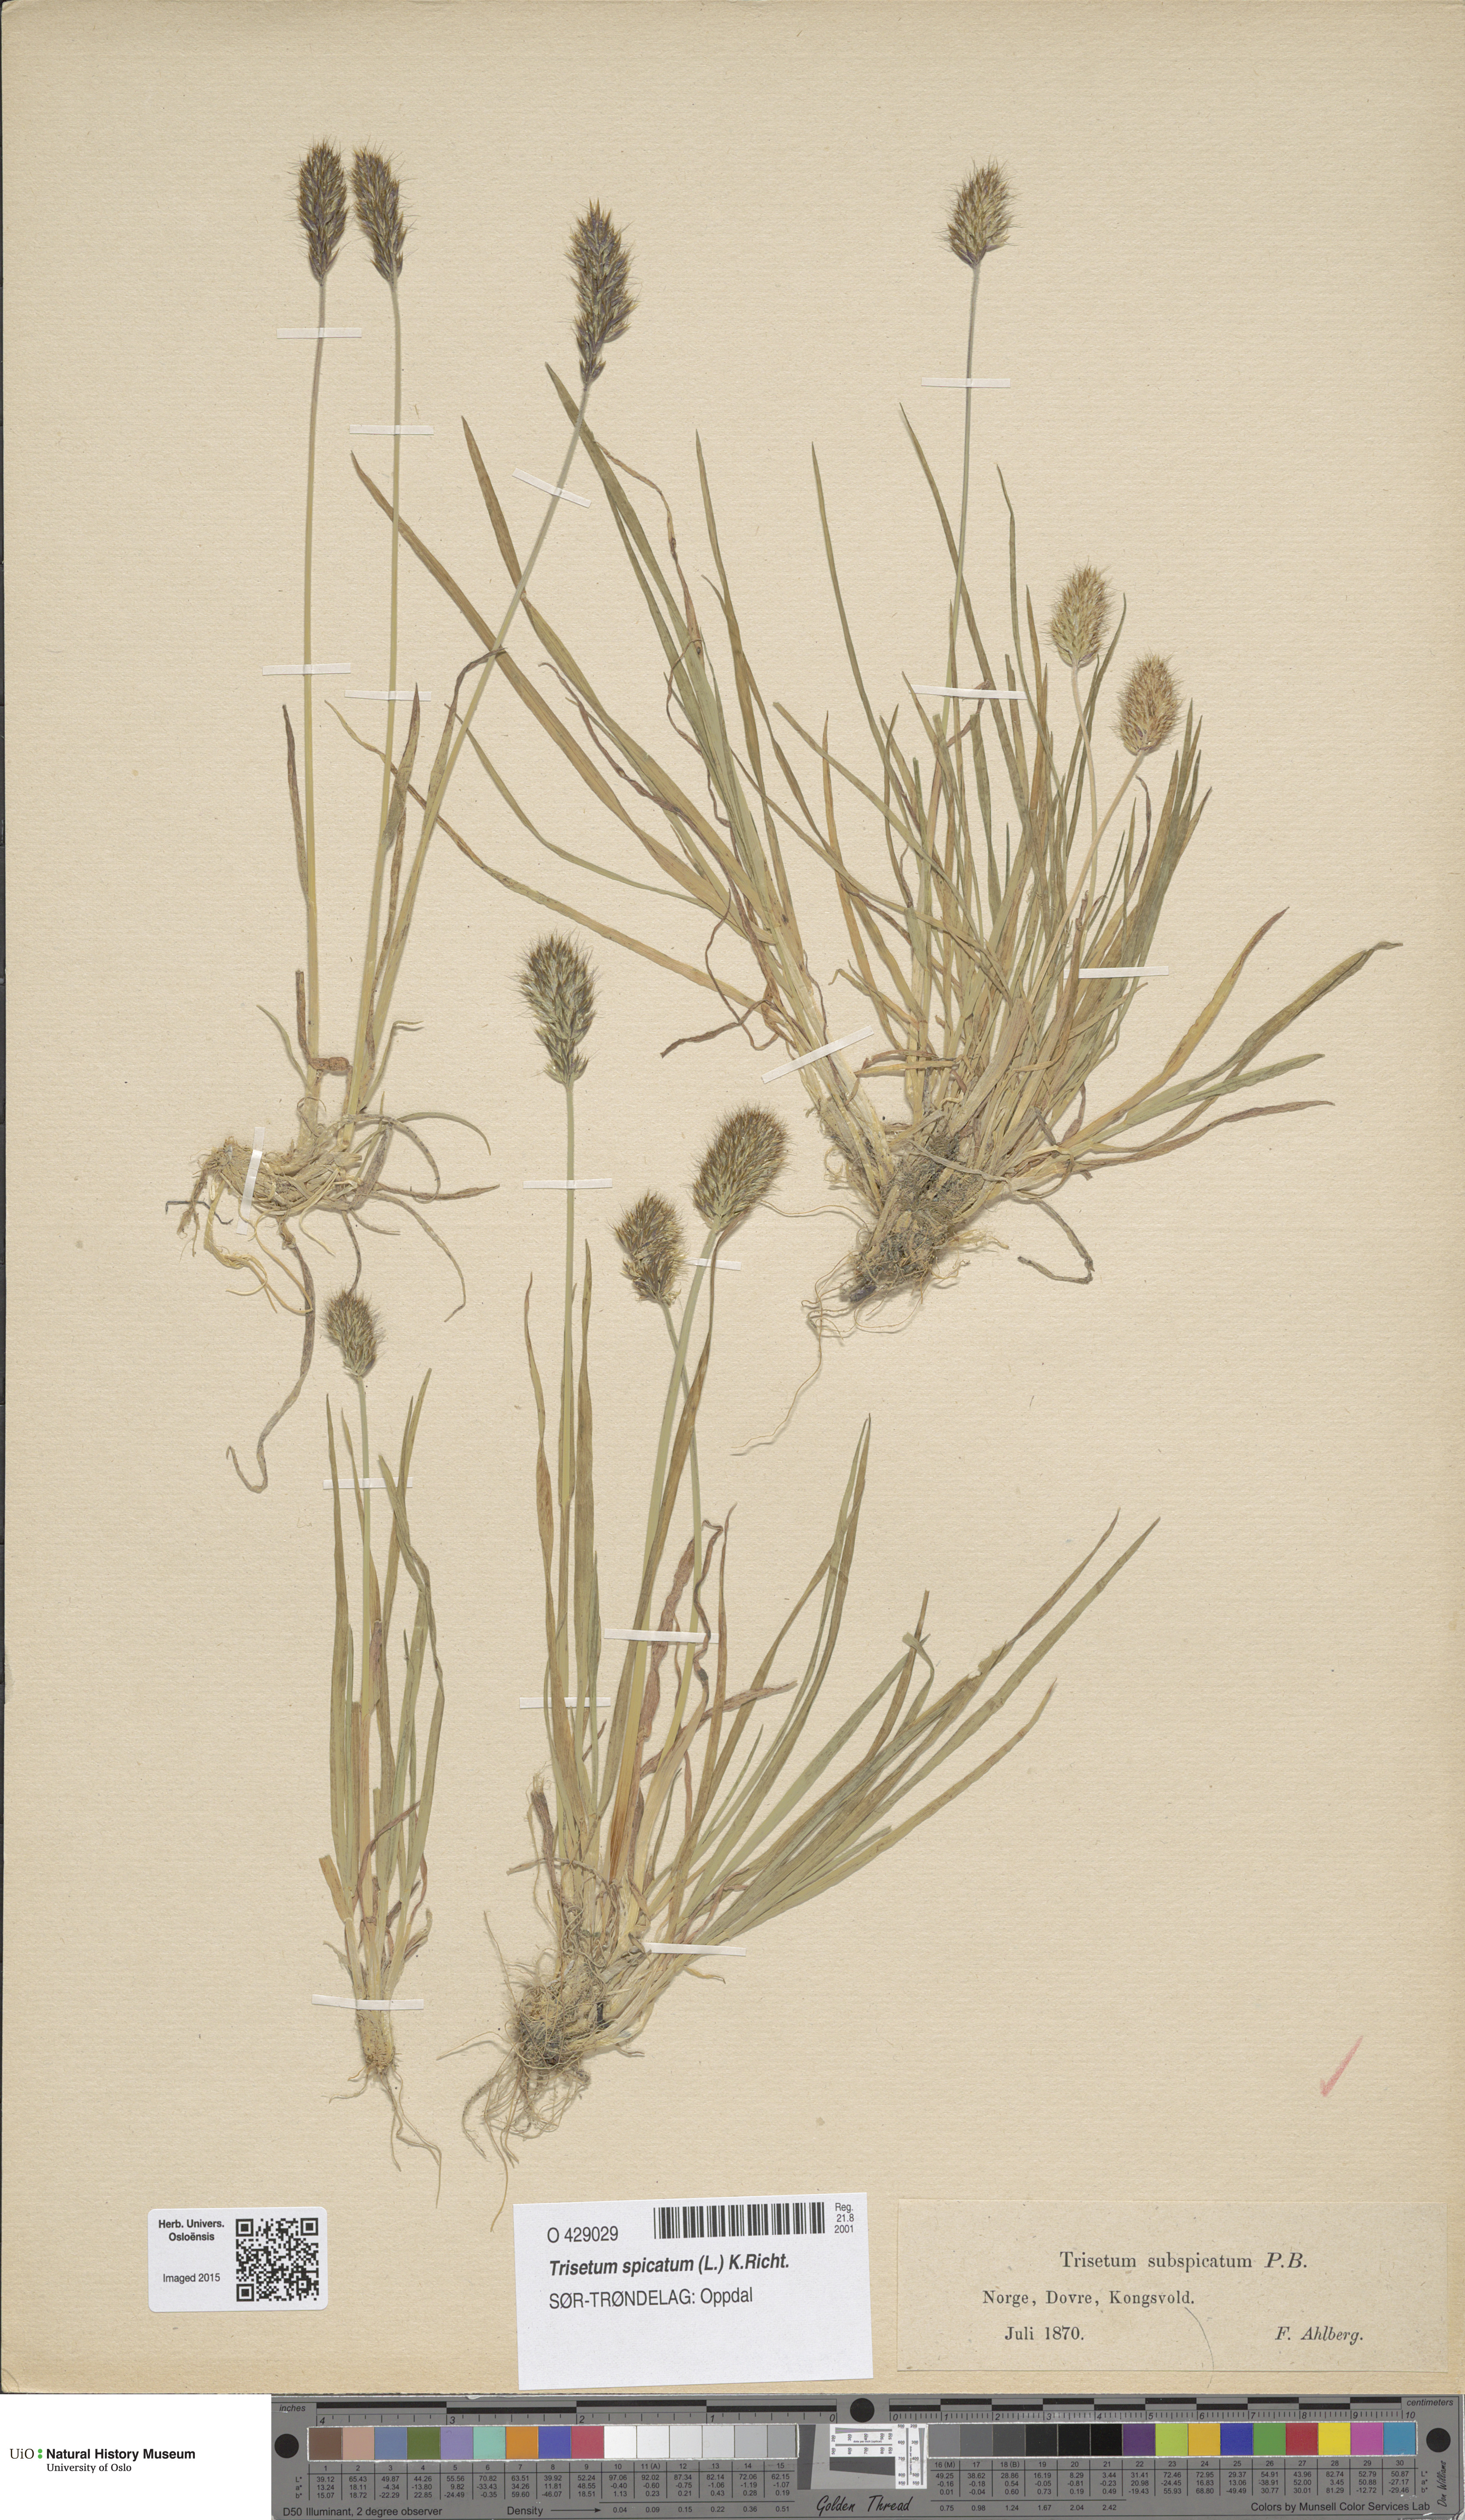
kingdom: Plantae
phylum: Tracheophyta
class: Liliopsida
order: Poales
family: Poaceae
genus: Koeleria
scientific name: Koeleria spicata
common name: Mountain trisetum
